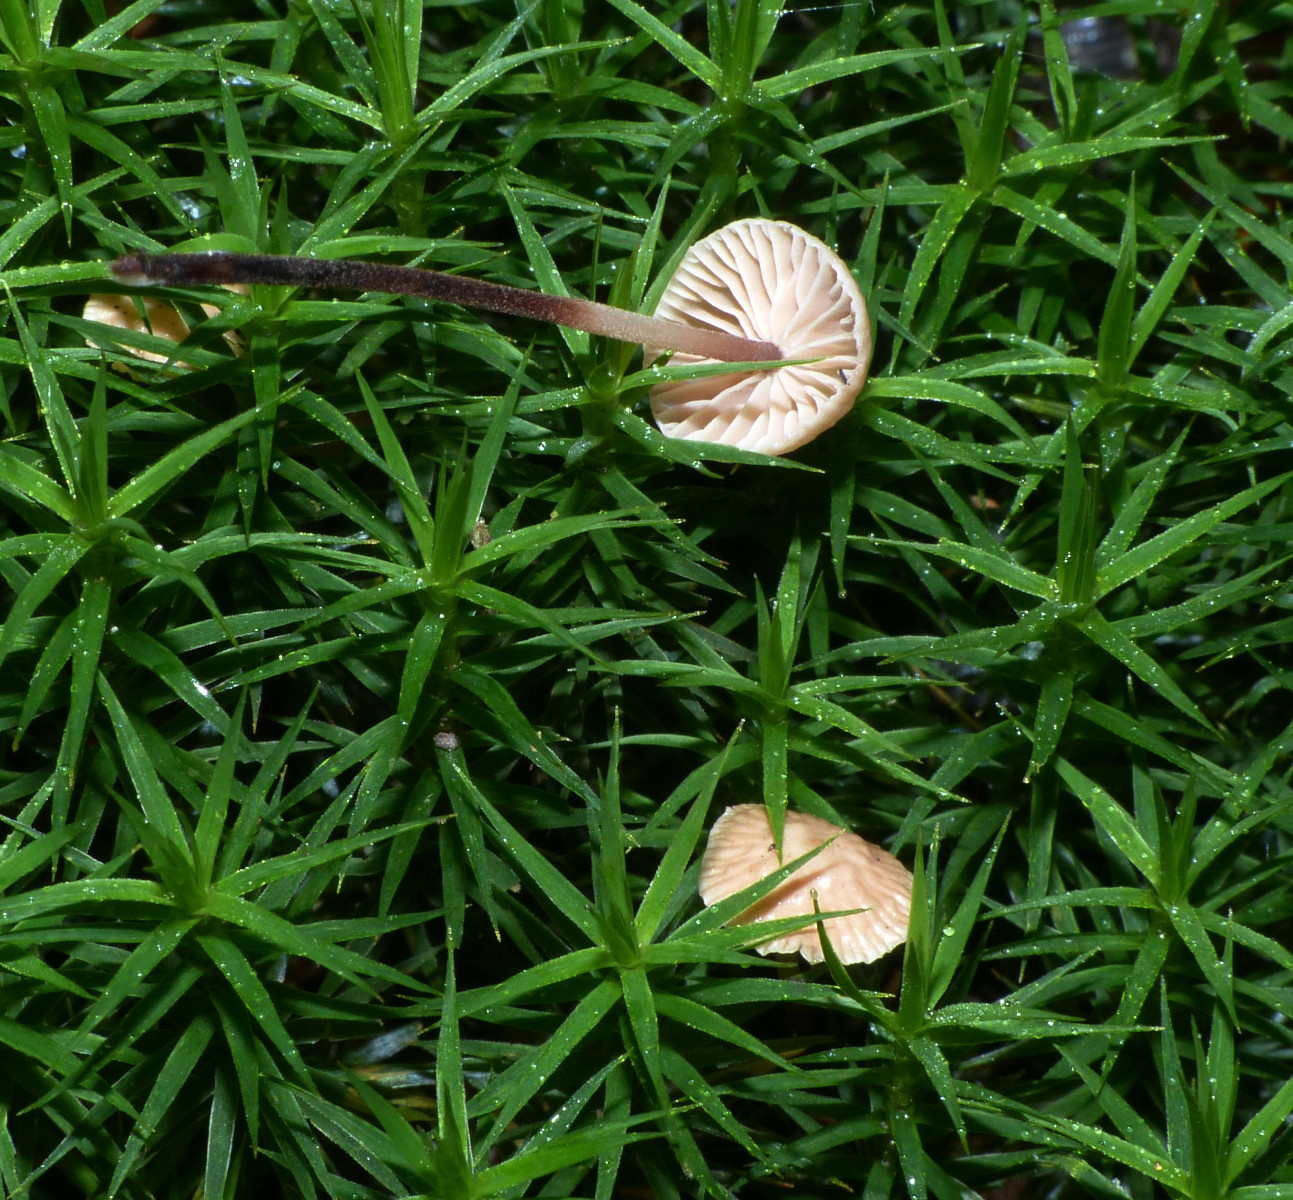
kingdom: Fungi
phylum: Basidiomycota
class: Agaricomycetes
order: Agaricales
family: Omphalotaceae
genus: Paragymnopus
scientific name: Paragymnopus perforans
